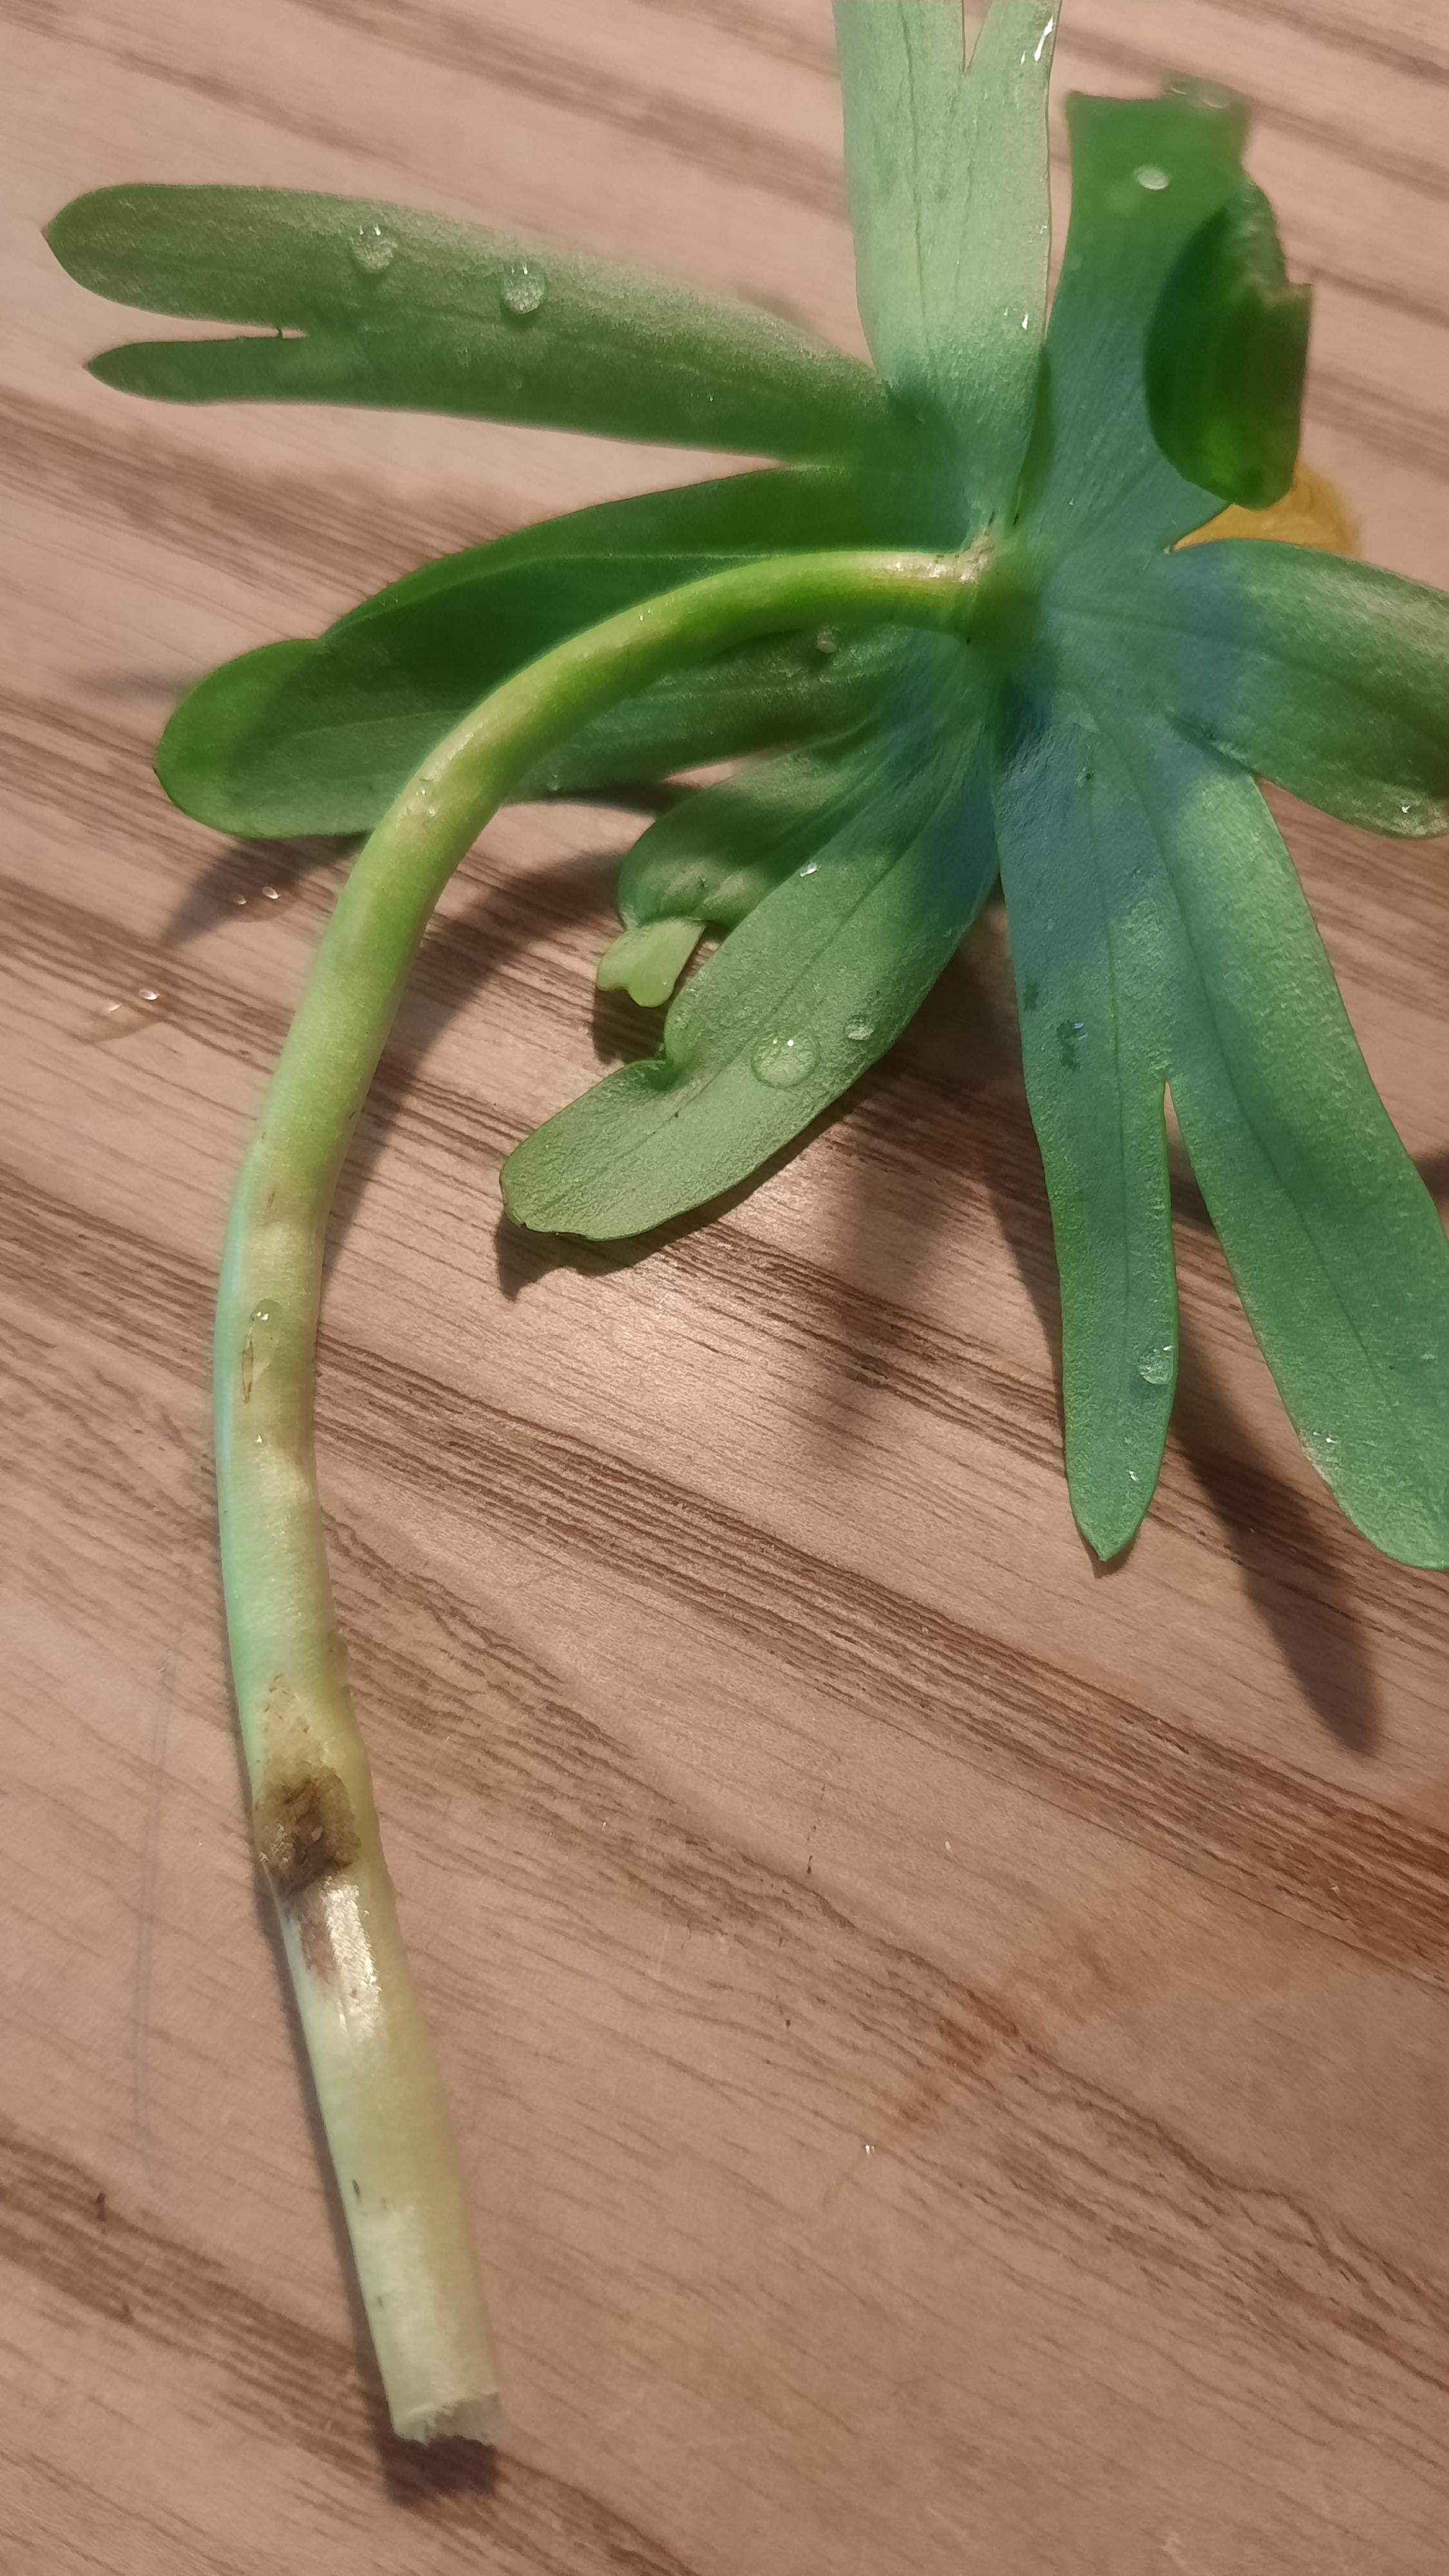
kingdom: Fungi
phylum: Basidiomycota
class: Ustilaginomycetes
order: Urocystidales
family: Urocystidaceae
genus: Urocystis
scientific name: Urocystis eranthidis
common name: erantis-brand
